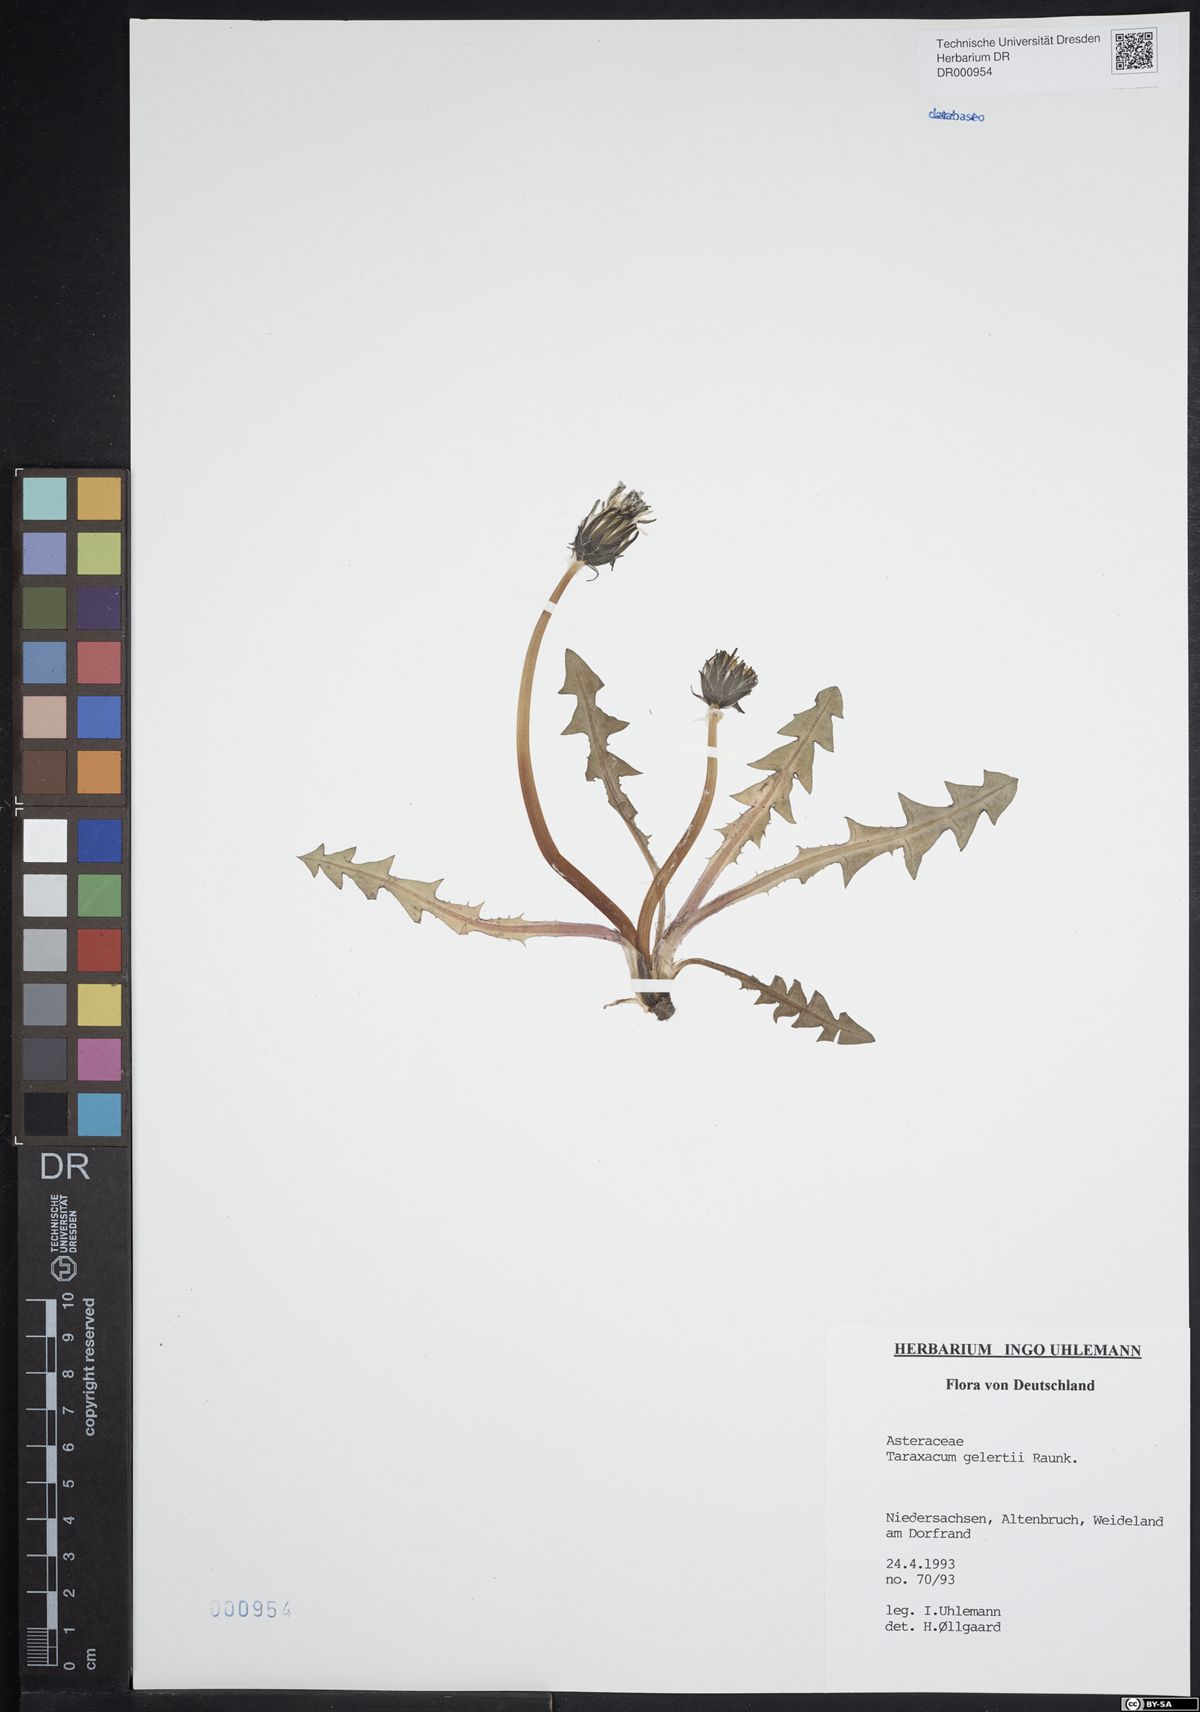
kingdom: Plantae
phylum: Tracheophyta
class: Magnoliopsida
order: Asterales
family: Asteraceae
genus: Taraxacum
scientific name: Taraxacum gelertii
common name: Gelert's dandelion
